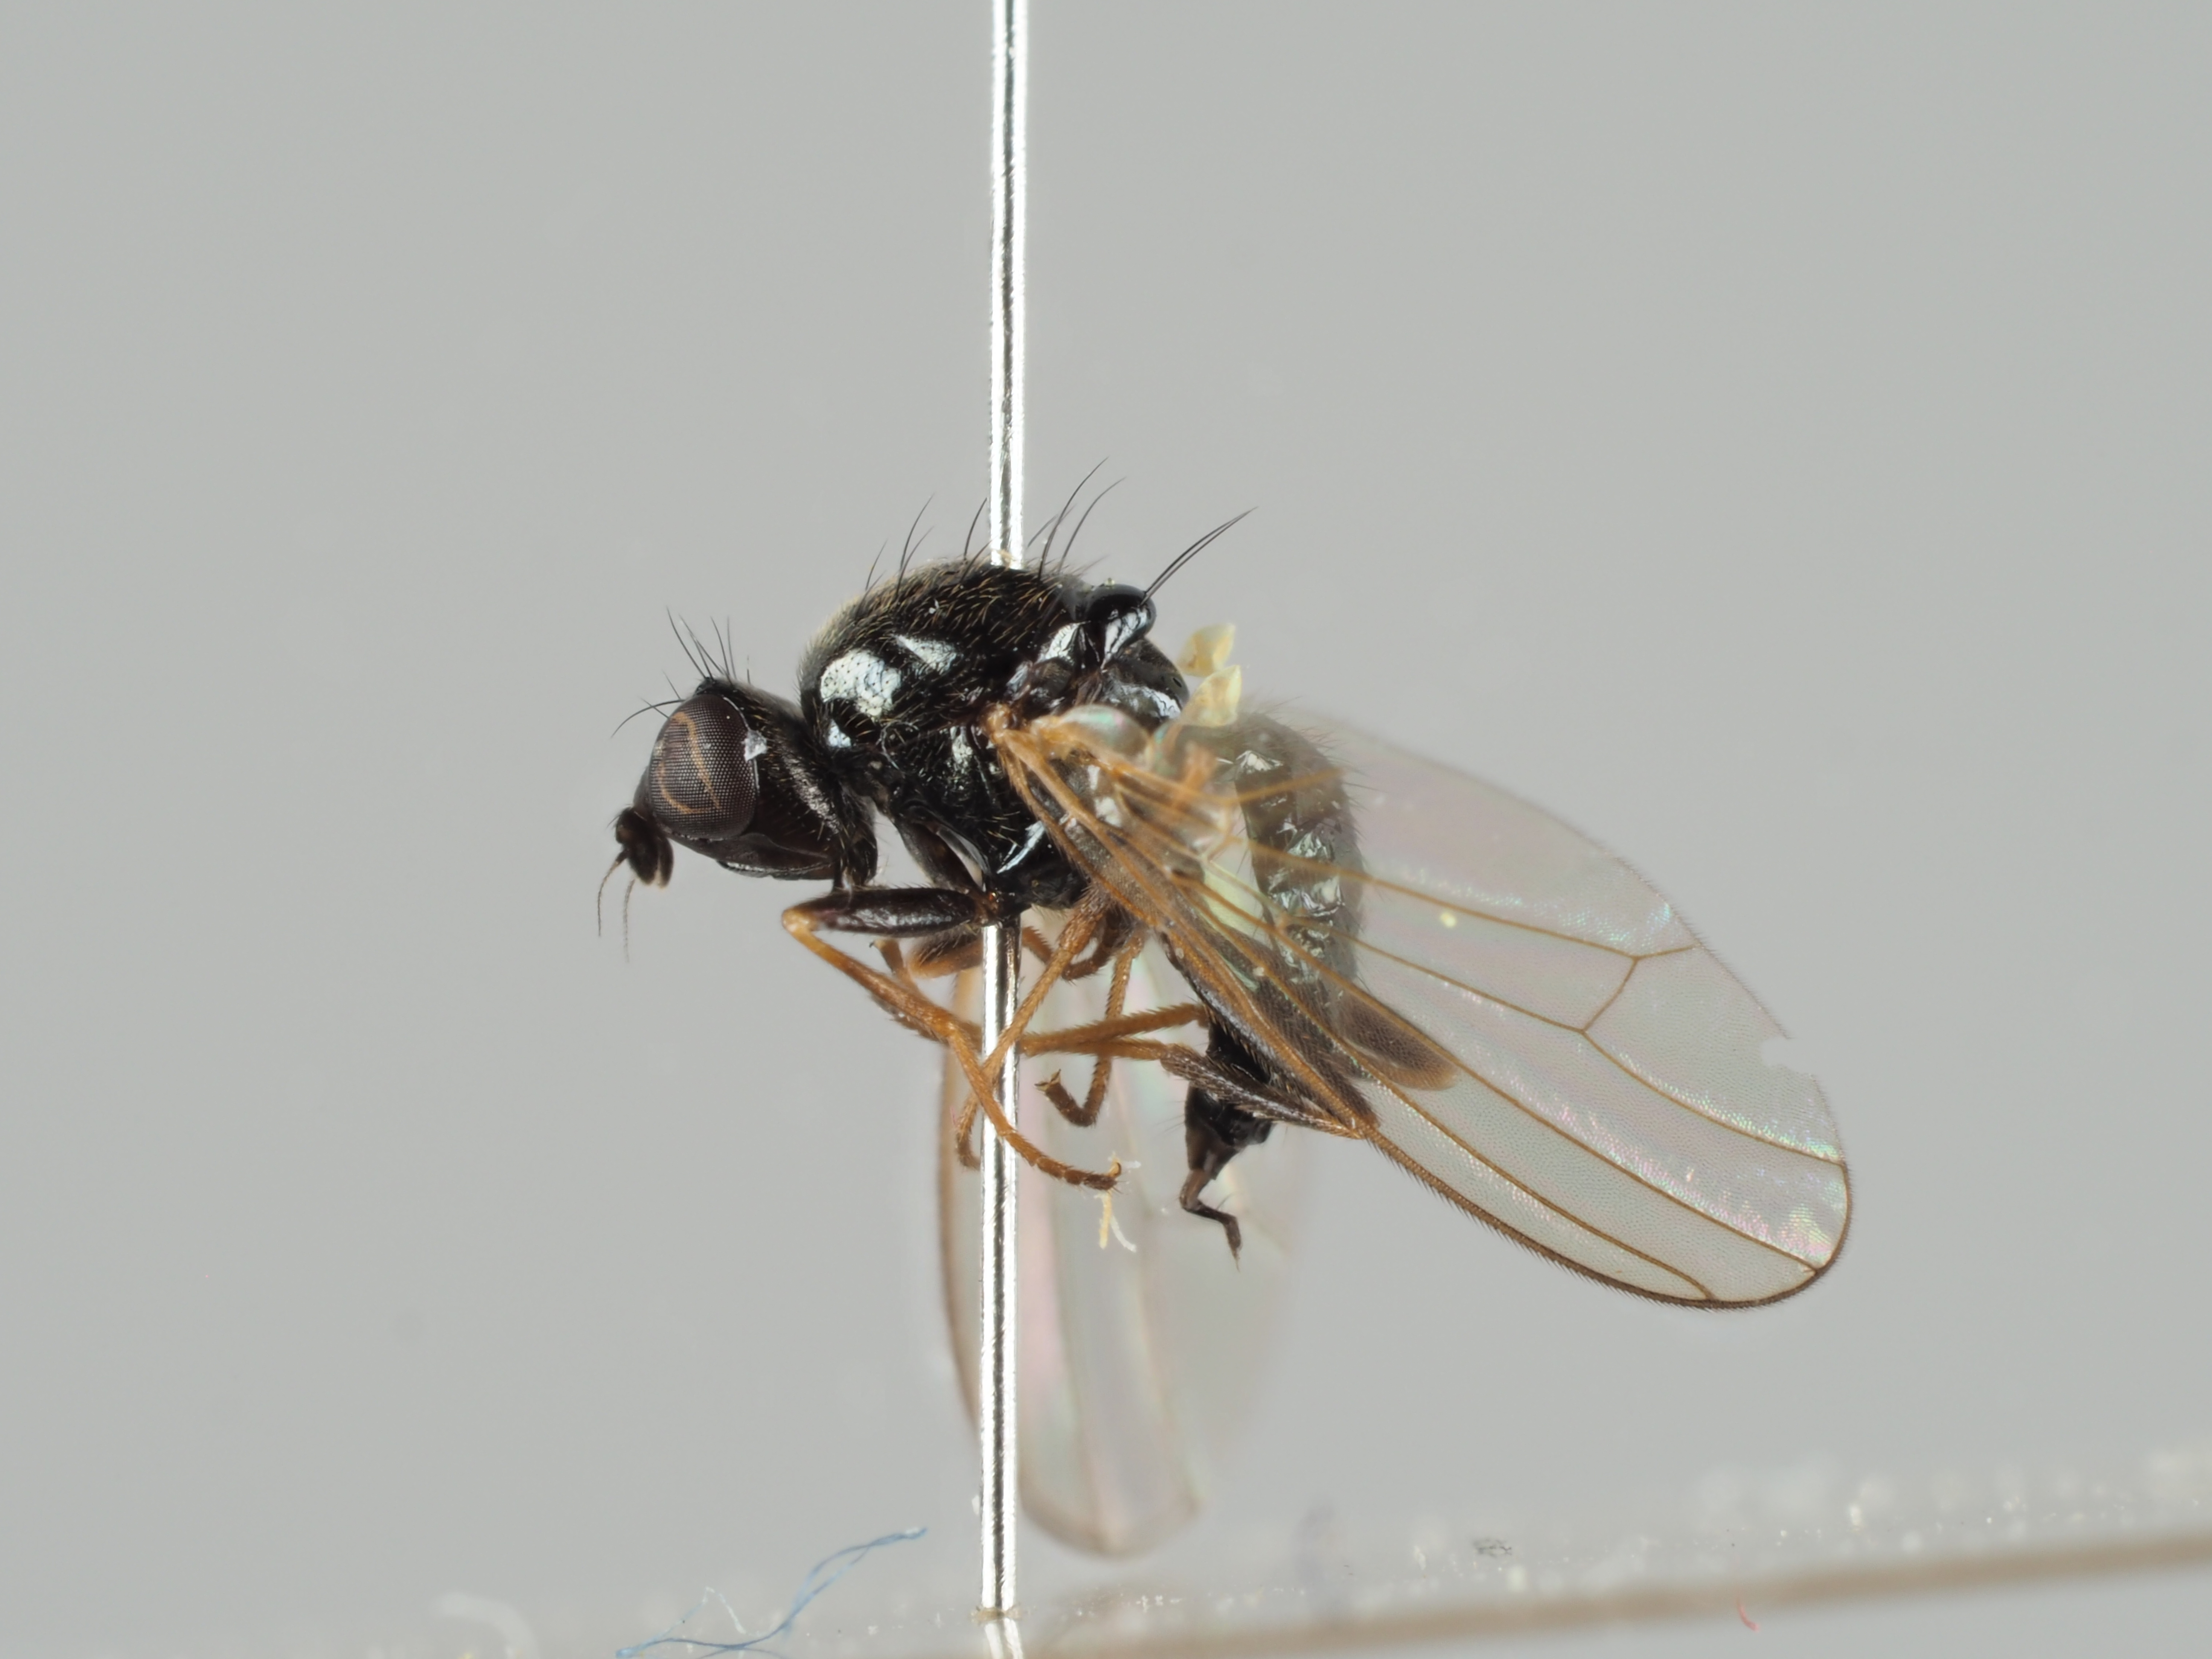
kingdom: Animalia
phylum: Arthropoda
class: Insecta
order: Diptera
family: Psilidae
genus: Psila
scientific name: Psila atra
